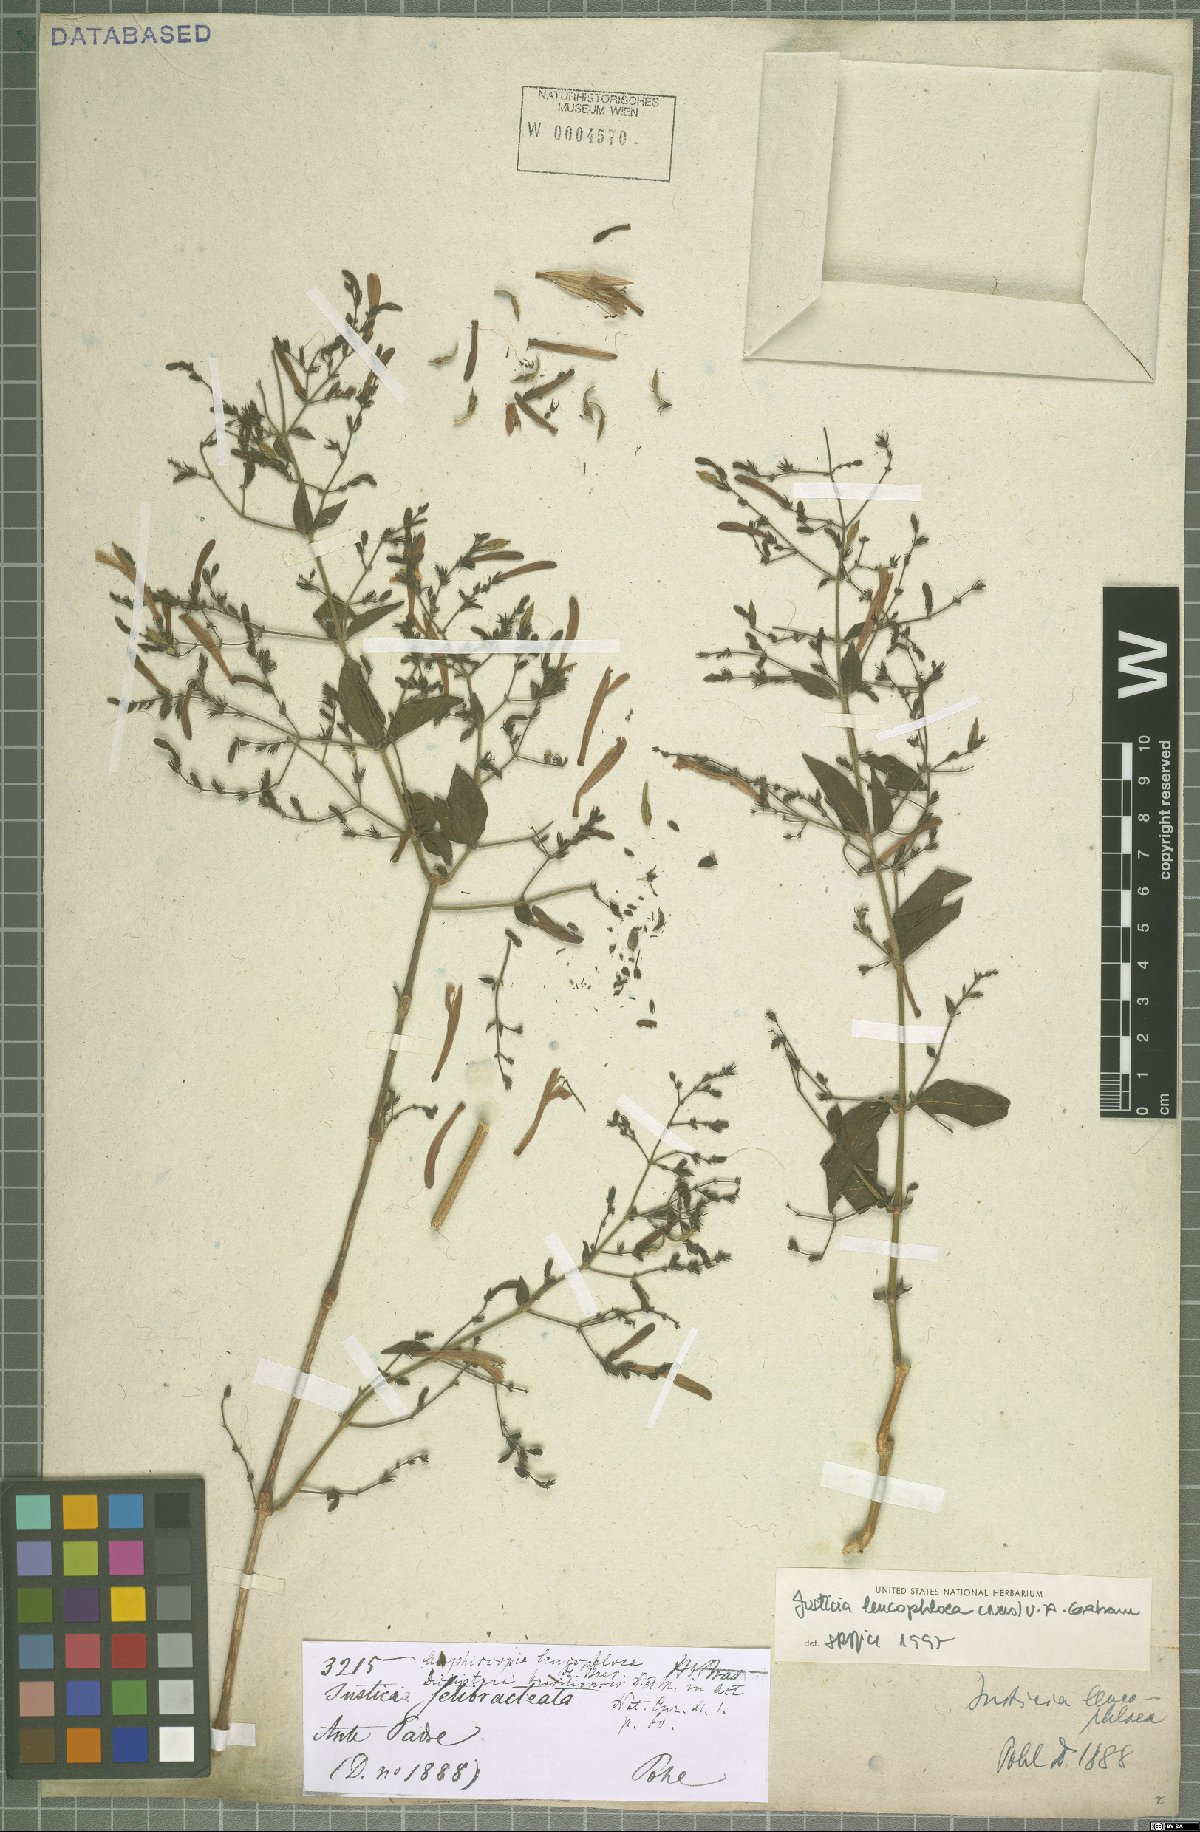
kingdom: Plantae
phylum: Tracheophyta
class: Magnoliopsida
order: Lamiales
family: Acanthaceae
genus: Justicia
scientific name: Justicia xipotensis
